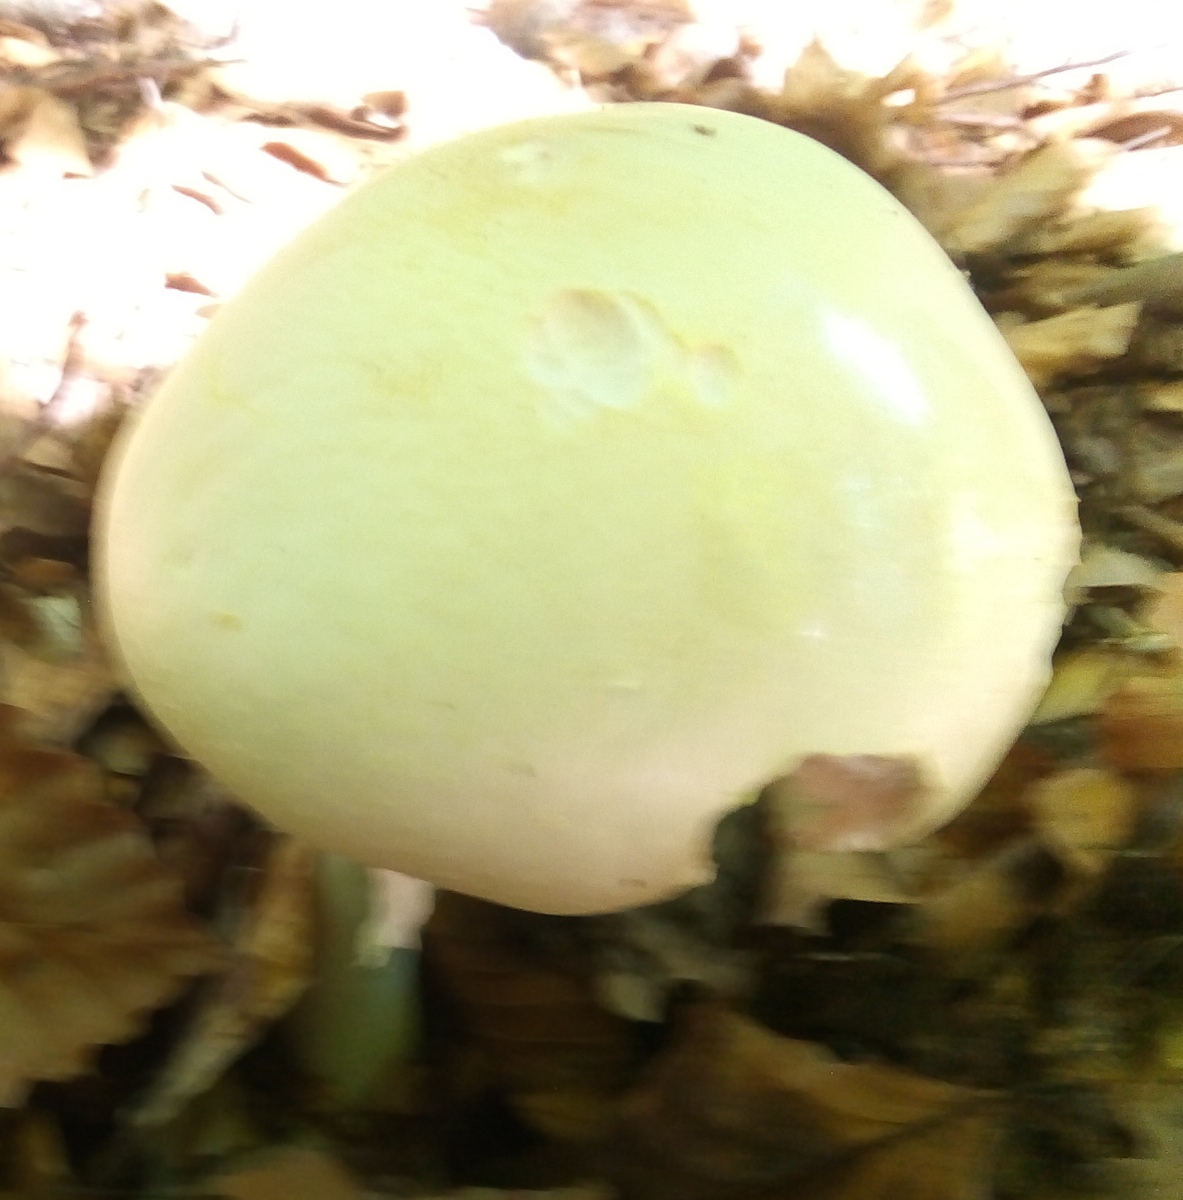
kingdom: Fungi
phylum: Basidiomycota
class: Agaricomycetes
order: Agaricales
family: Agaricaceae
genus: Agaricus
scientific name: Agaricus sylvicola
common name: gulhvid champignon
